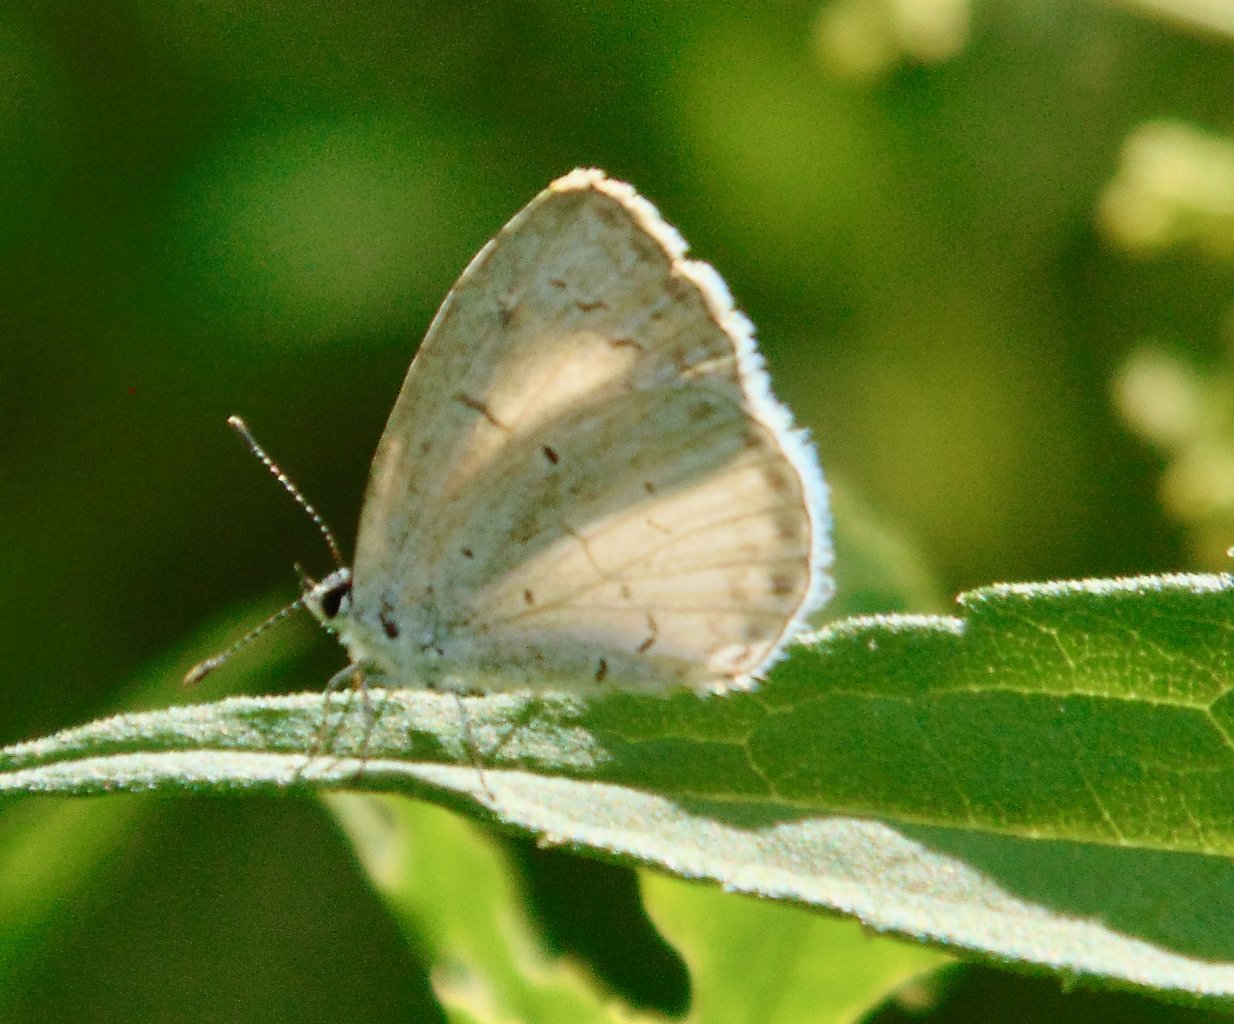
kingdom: Animalia
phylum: Arthropoda
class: Insecta
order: Lepidoptera
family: Lycaenidae
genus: Cyaniris
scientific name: Cyaniris neglecta
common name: Summer Azure
